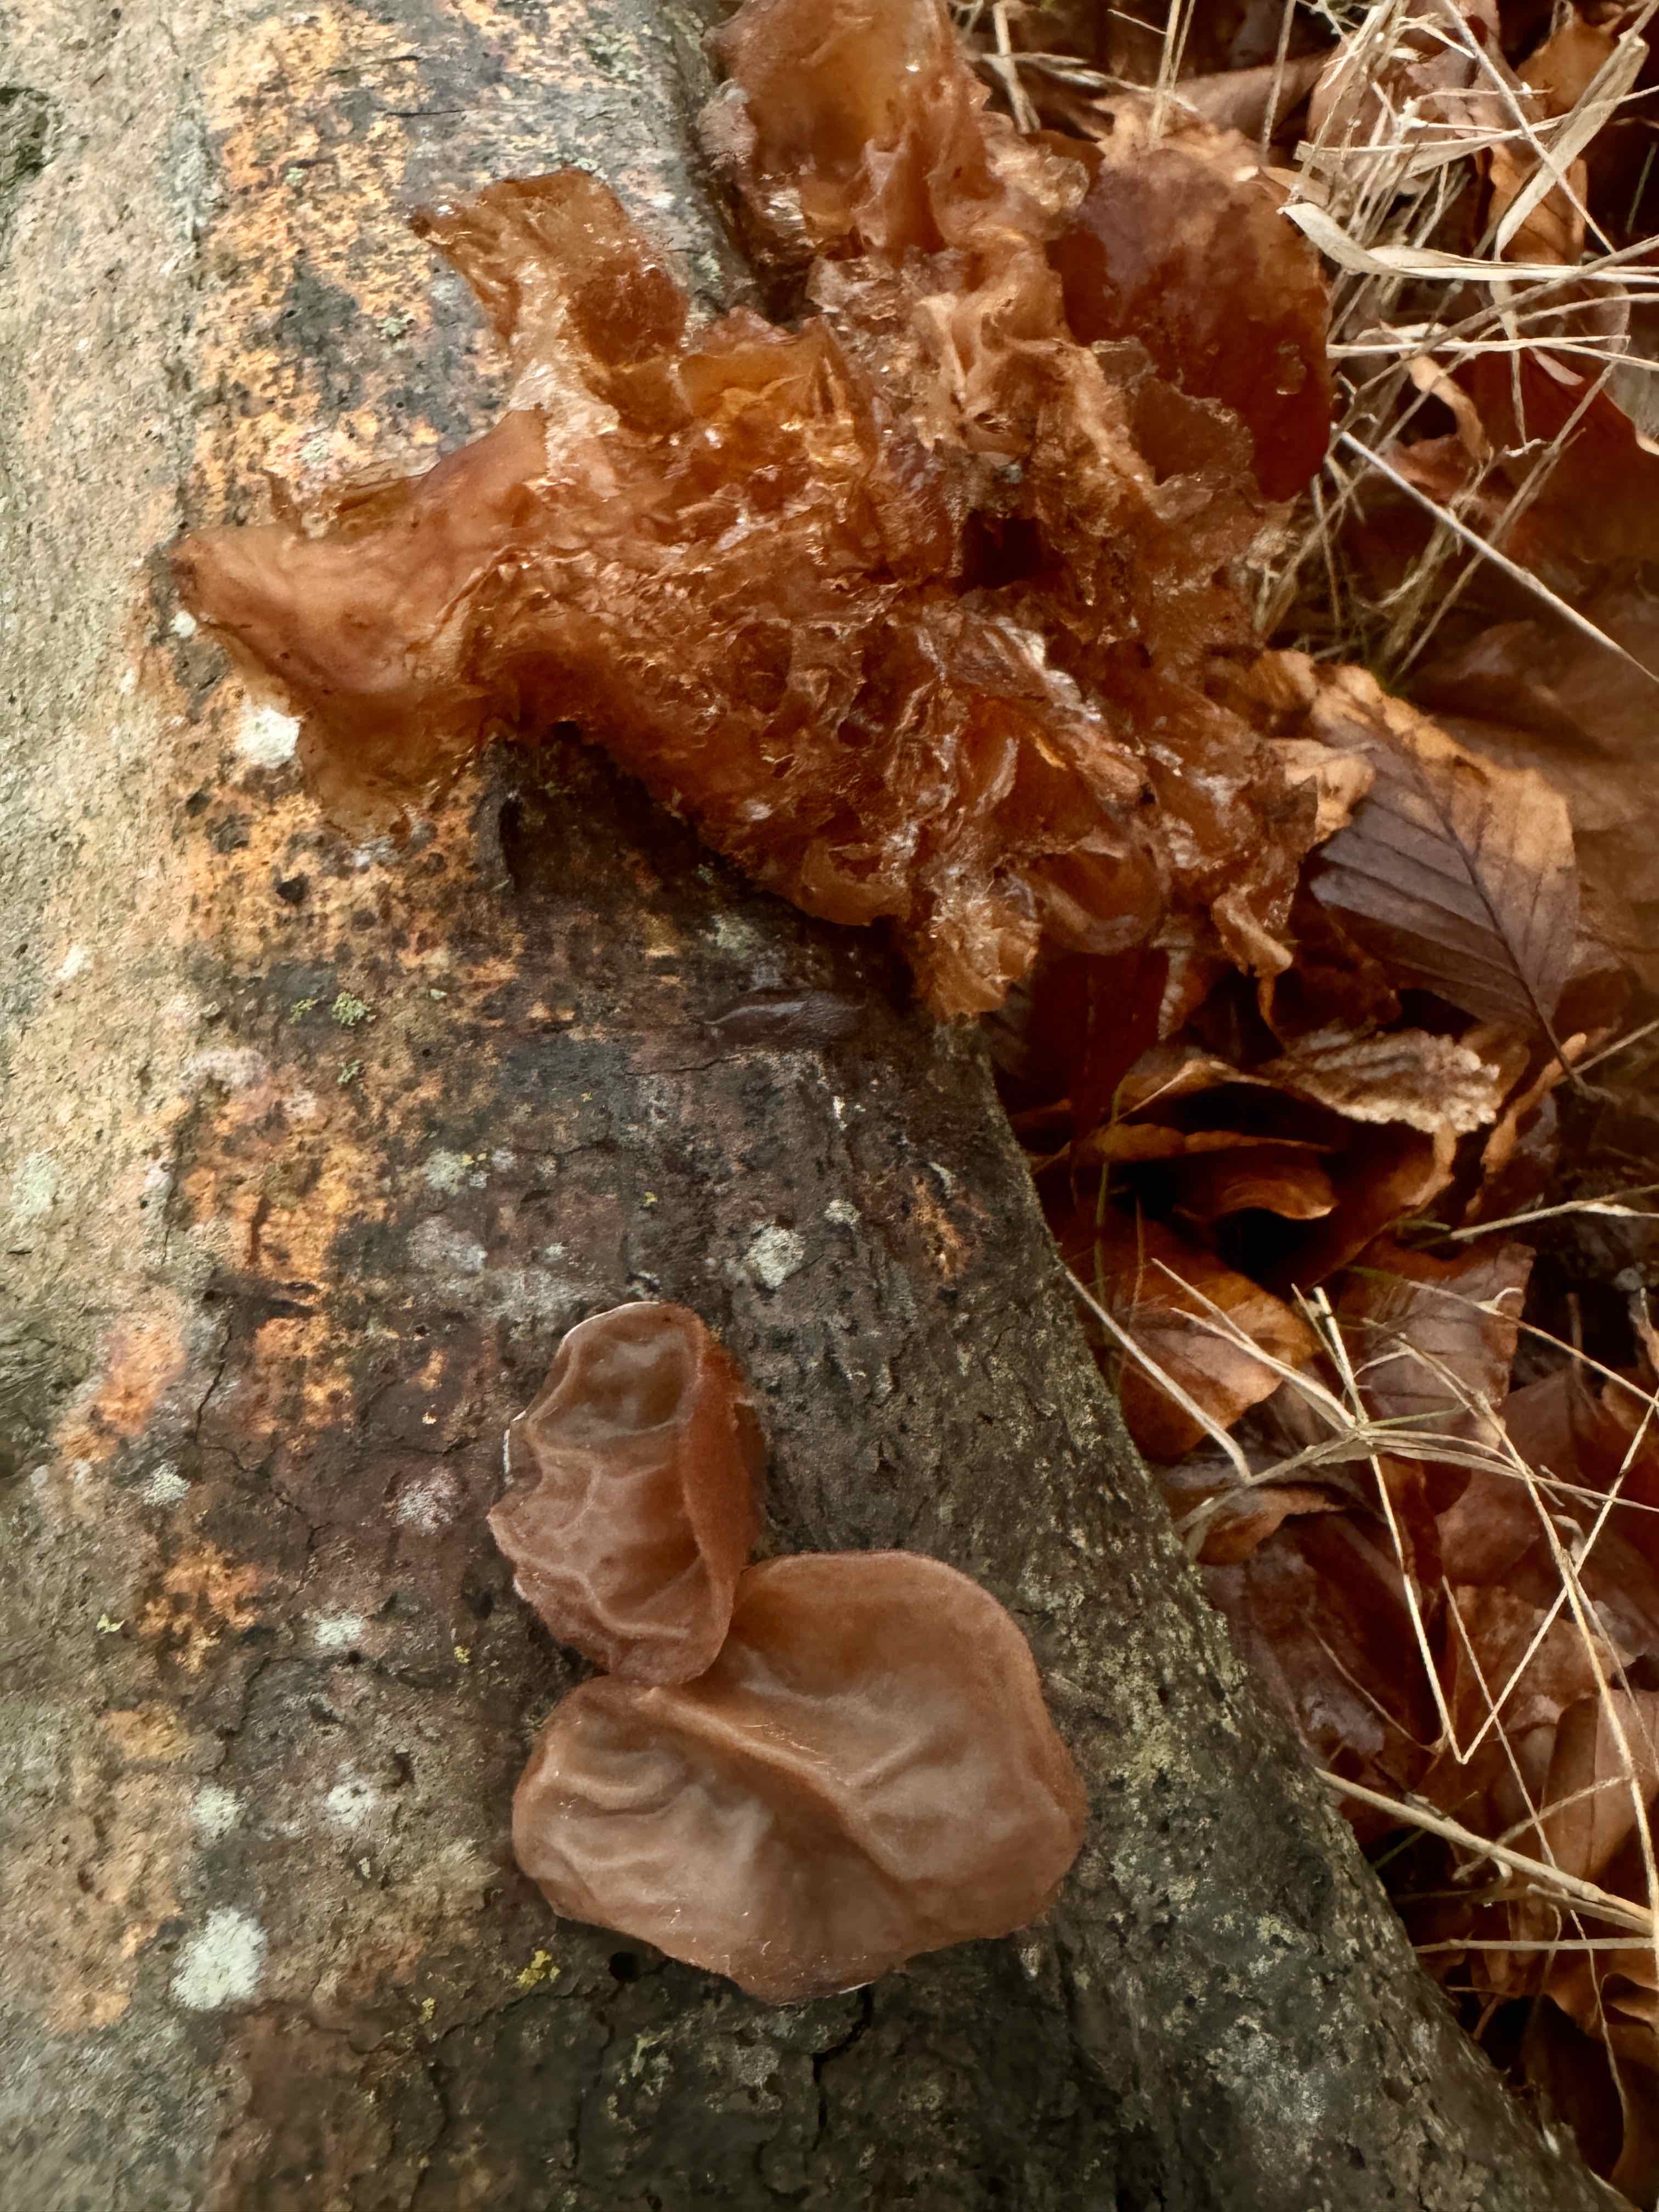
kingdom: Fungi
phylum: Basidiomycota
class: Agaricomycetes
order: Auriculariales
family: Auriculariaceae
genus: Auricularia
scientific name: Auricularia auricula-judae
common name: almindelig judasøre
